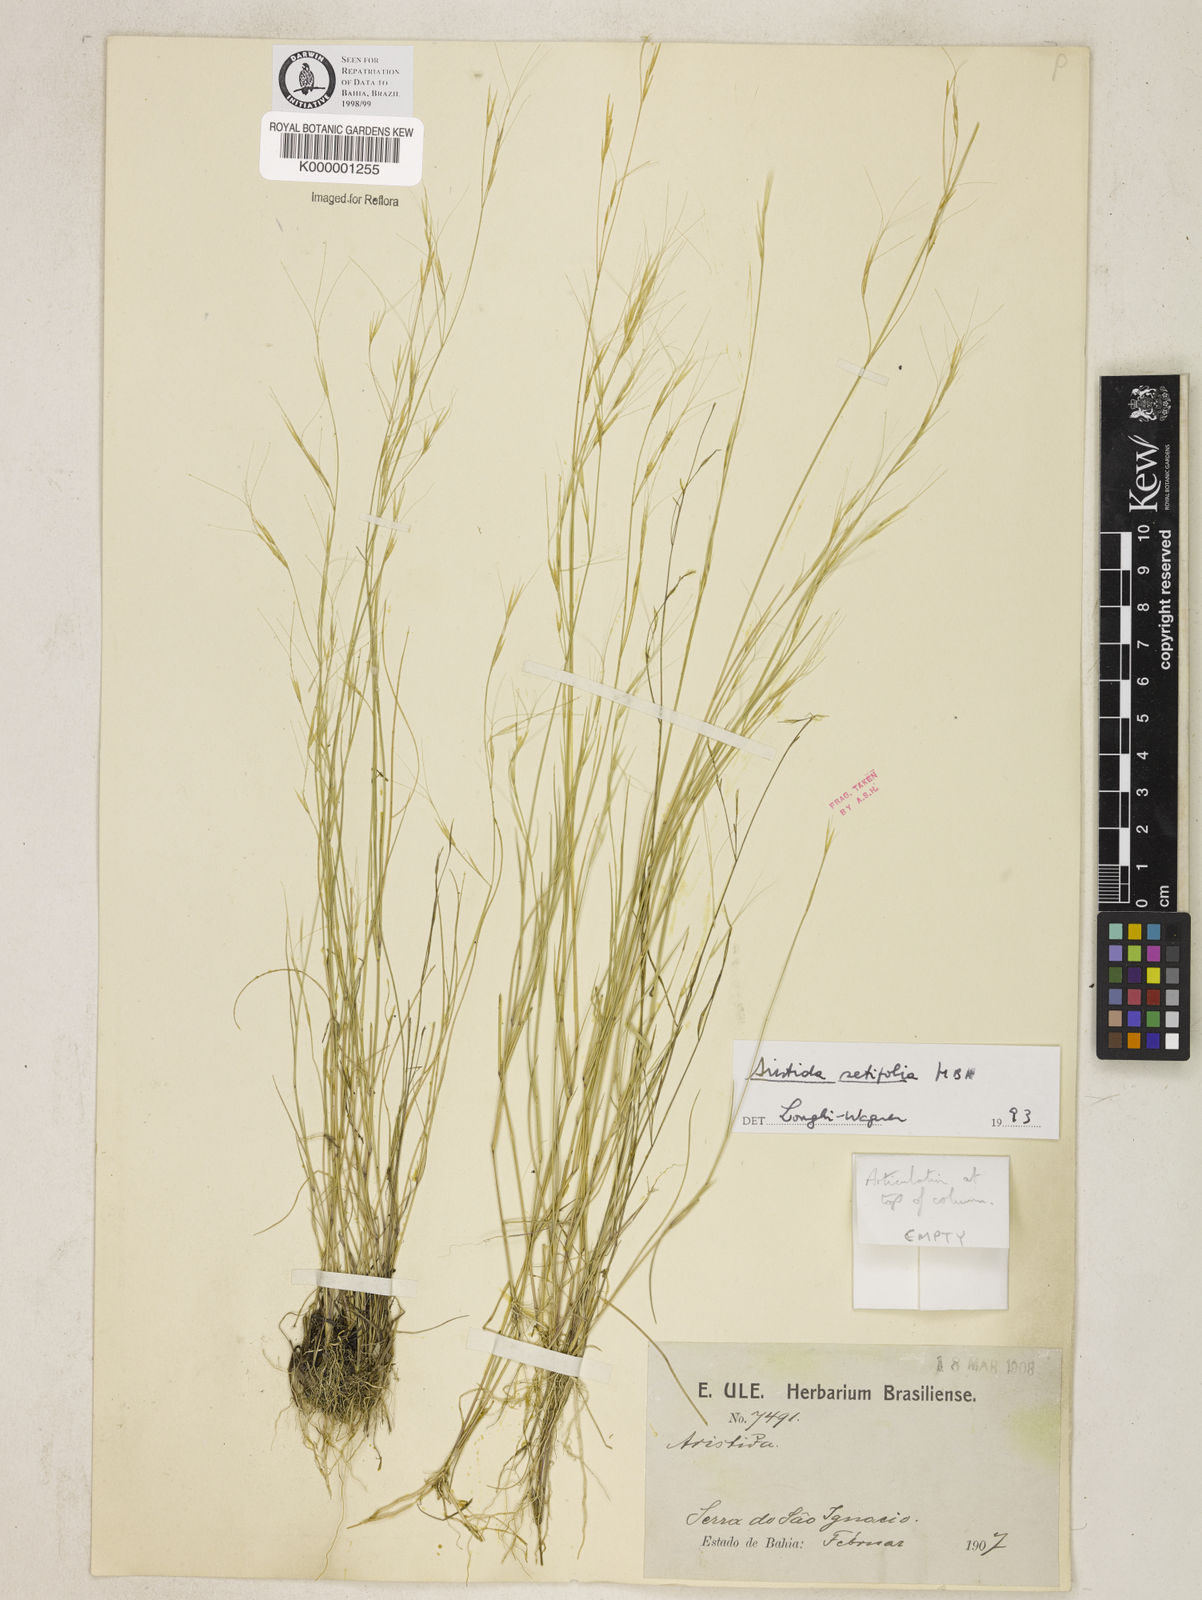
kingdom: Plantae
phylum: Tracheophyta
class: Liliopsida
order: Poales
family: Poaceae
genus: Aristida
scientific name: Aristida setifolia
